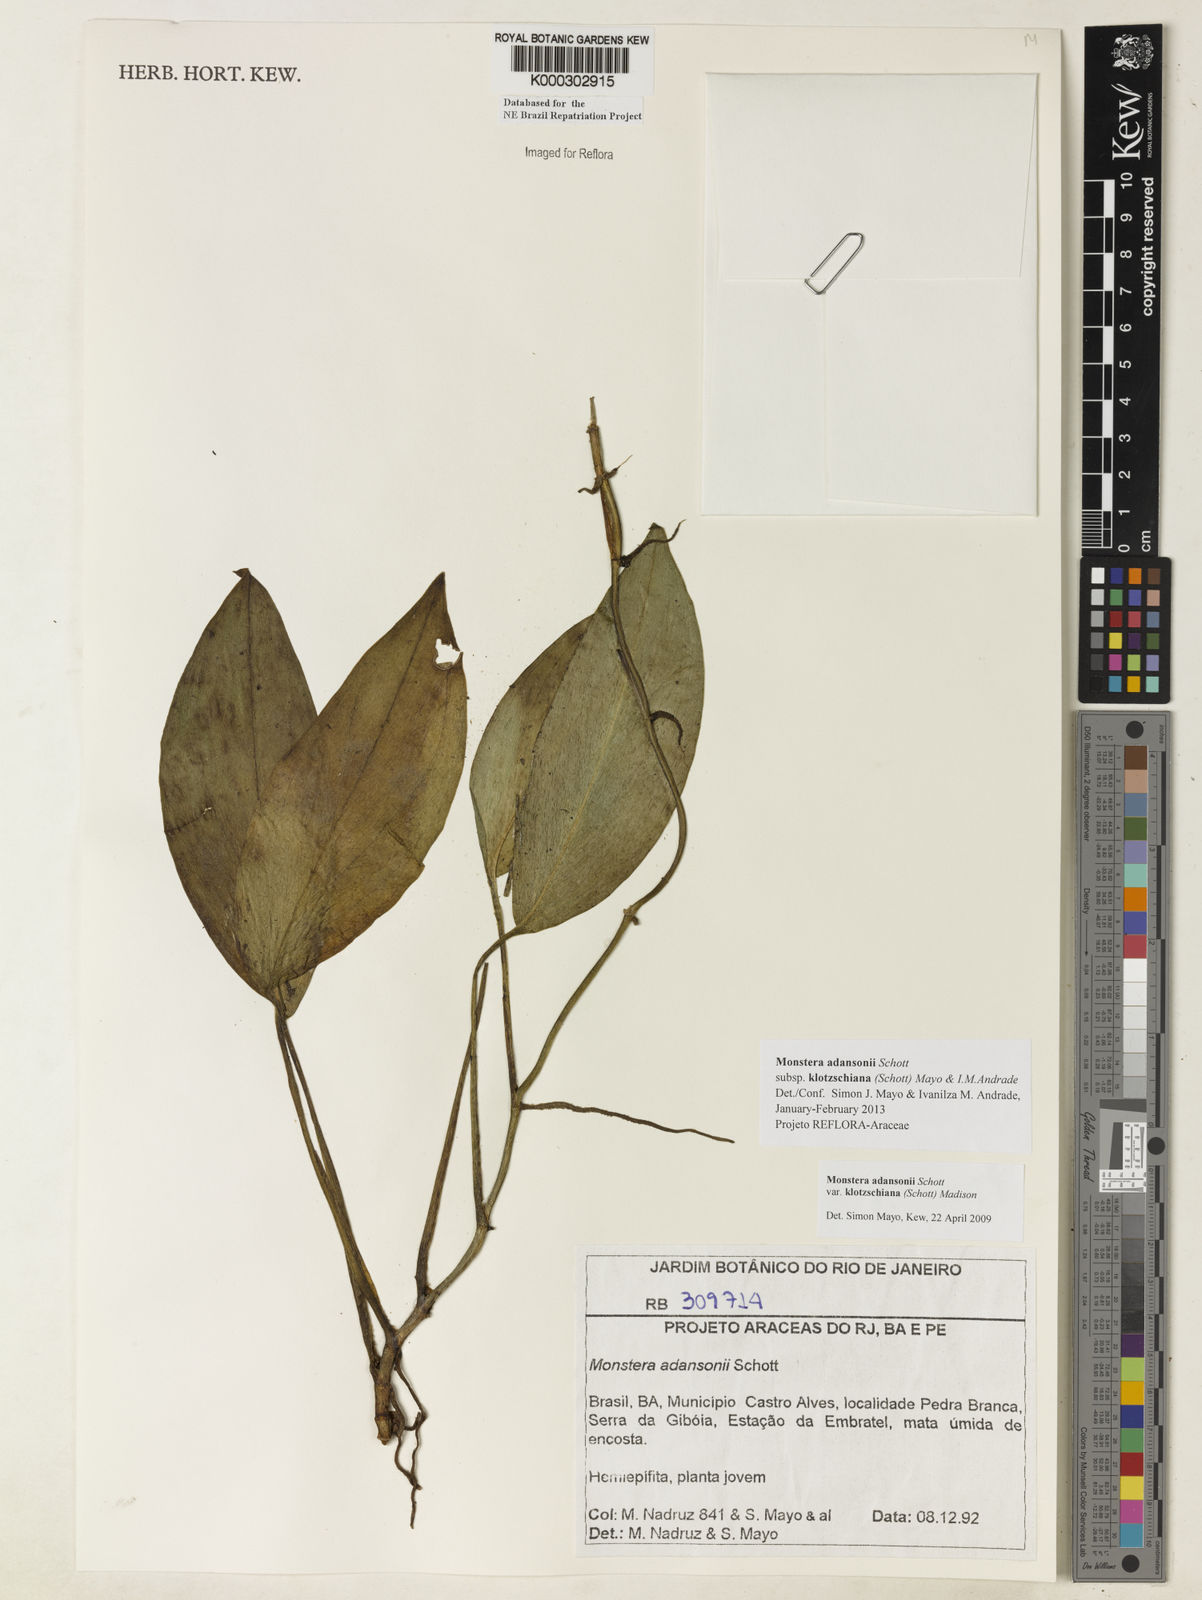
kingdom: Plantae
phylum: Tracheophyta
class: Liliopsida
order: Alismatales
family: Araceae
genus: Monstera
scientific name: Monstera adansonii
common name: Tarovine
